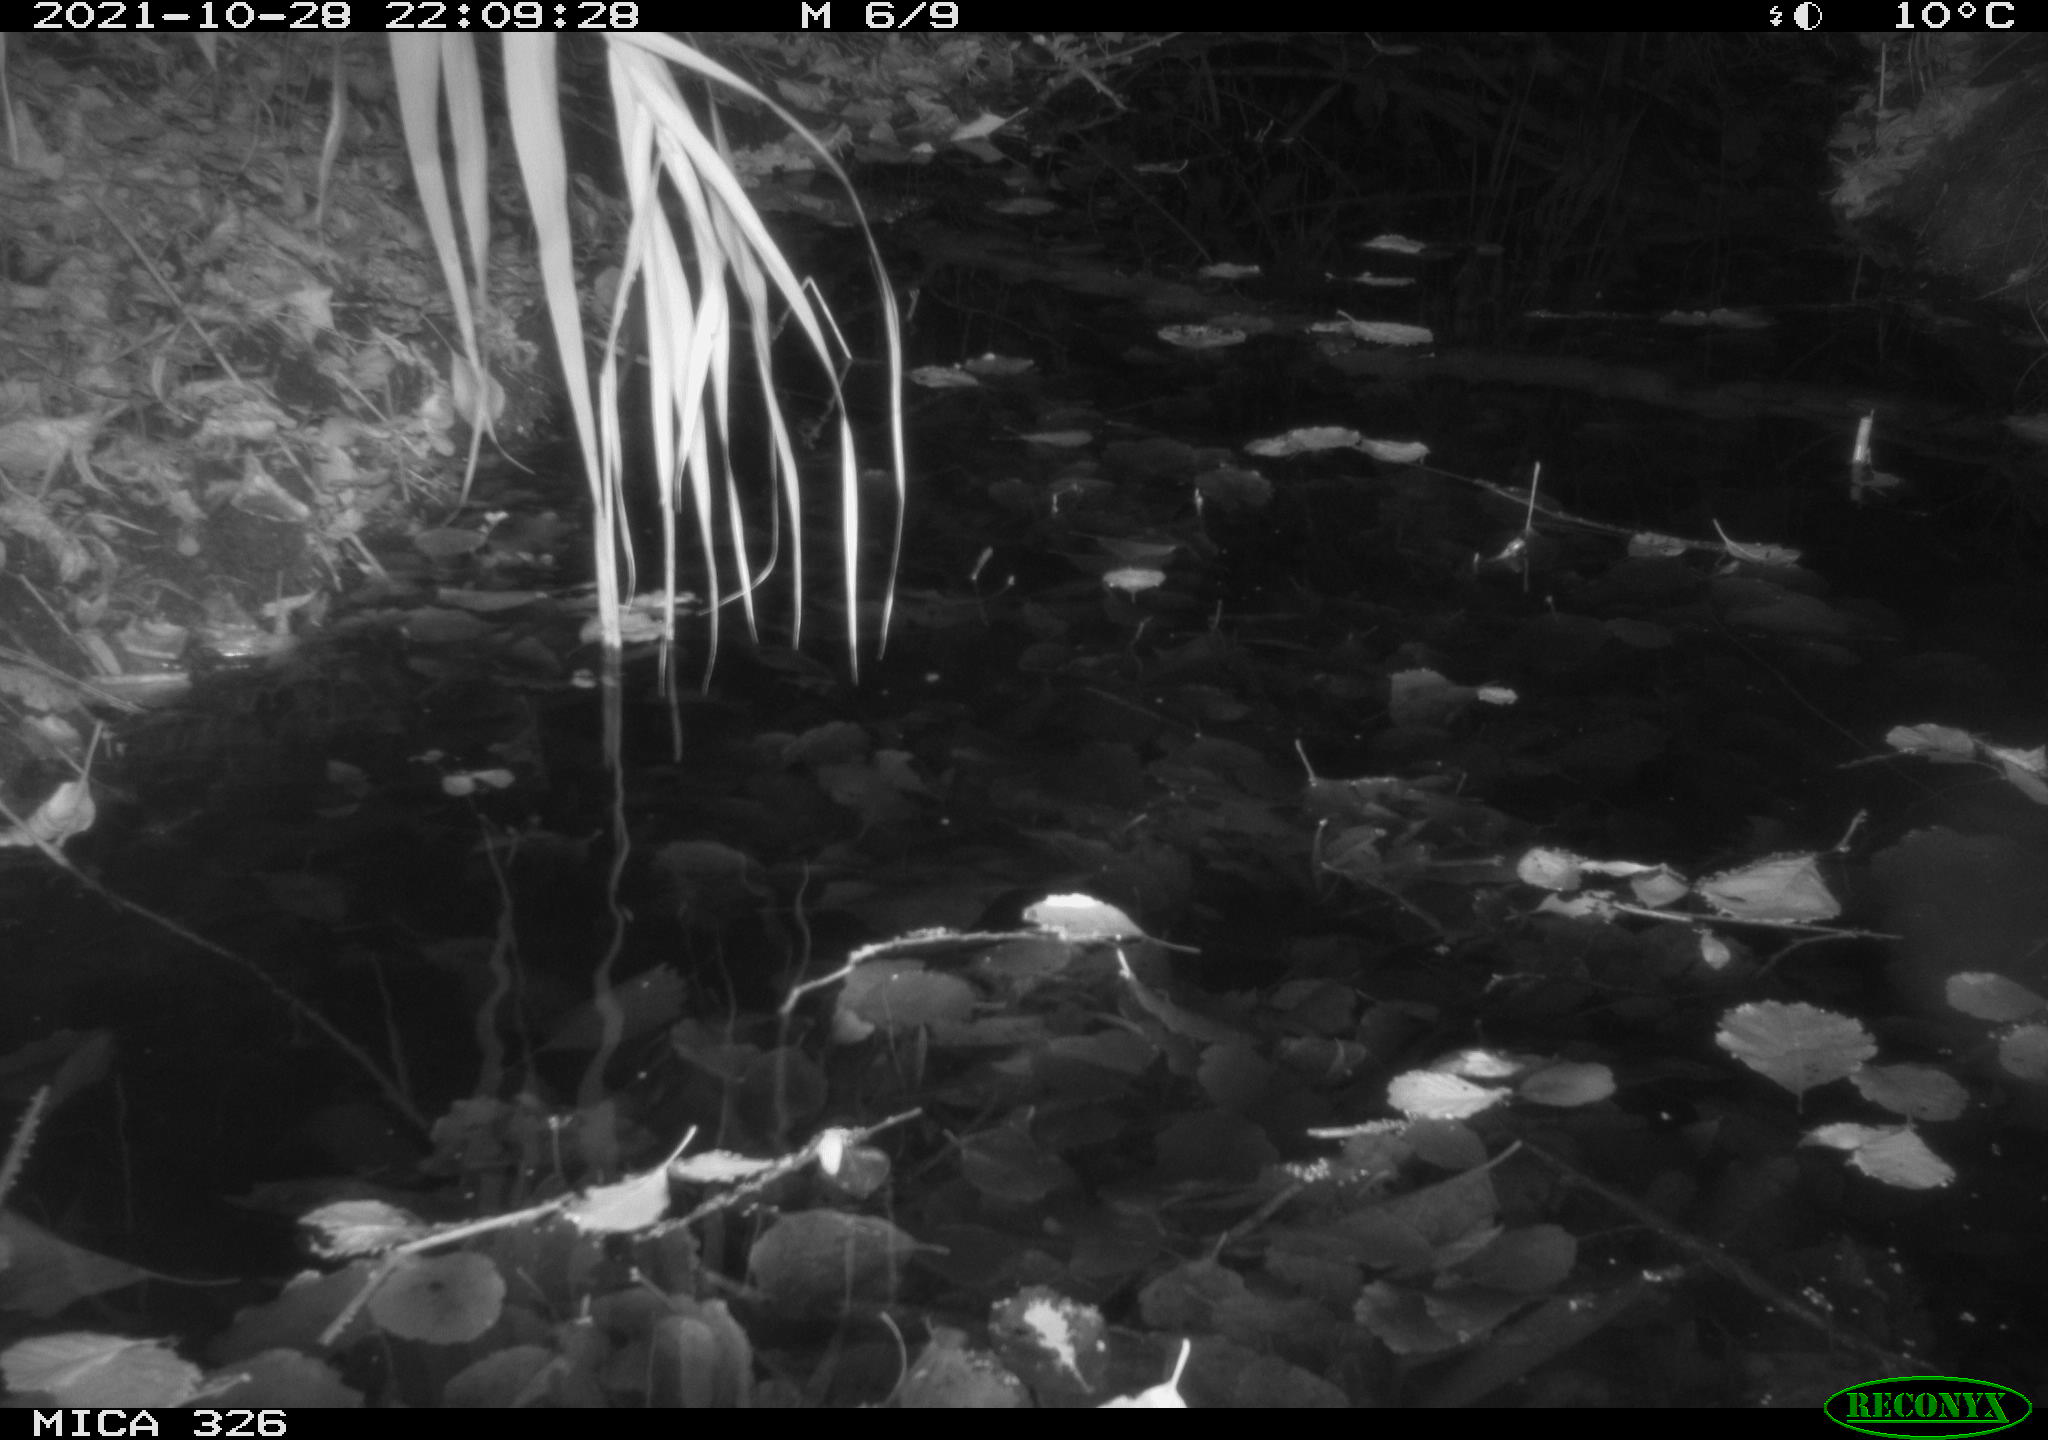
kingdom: Animalia
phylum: Chordata
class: Mammalia
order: Rodentia
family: Muridae
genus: Rattus
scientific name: Rattus norvegicus
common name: Brown rat
